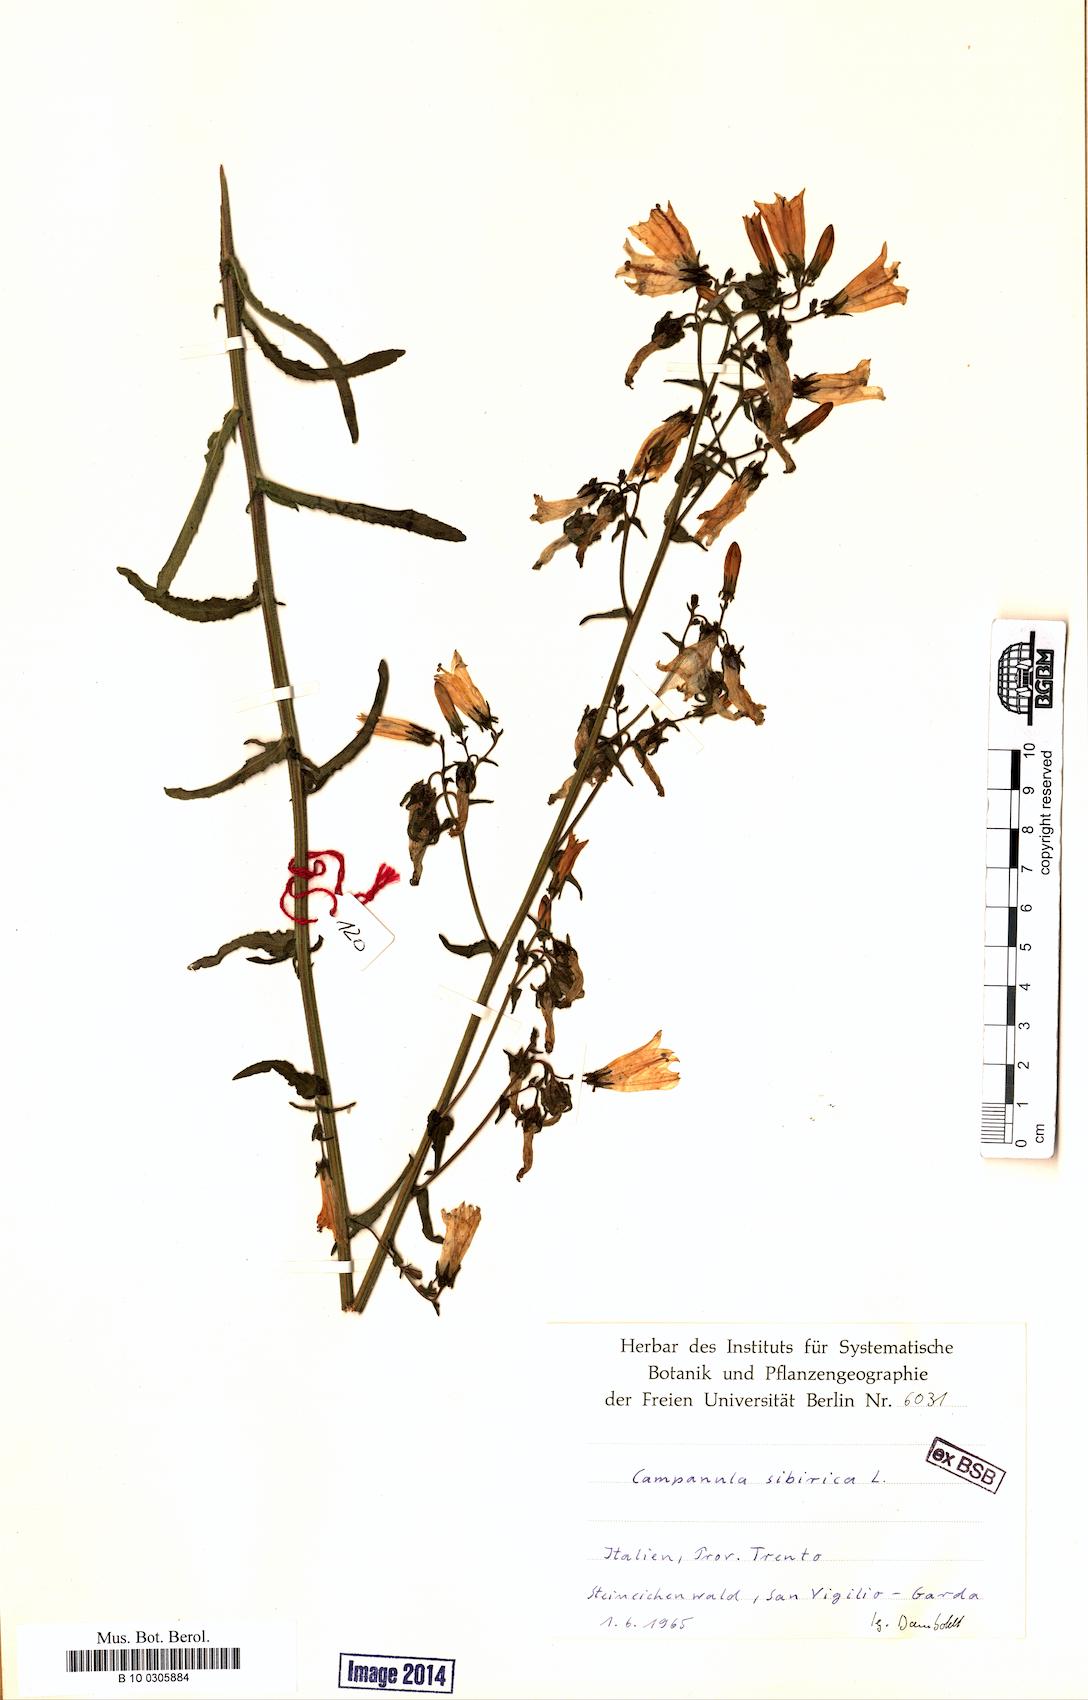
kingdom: Plantae
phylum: Tracheophyta
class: Magnoliopsida
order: Asterales
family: Campanulaceae
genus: Campanula
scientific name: Campanula sibirica
